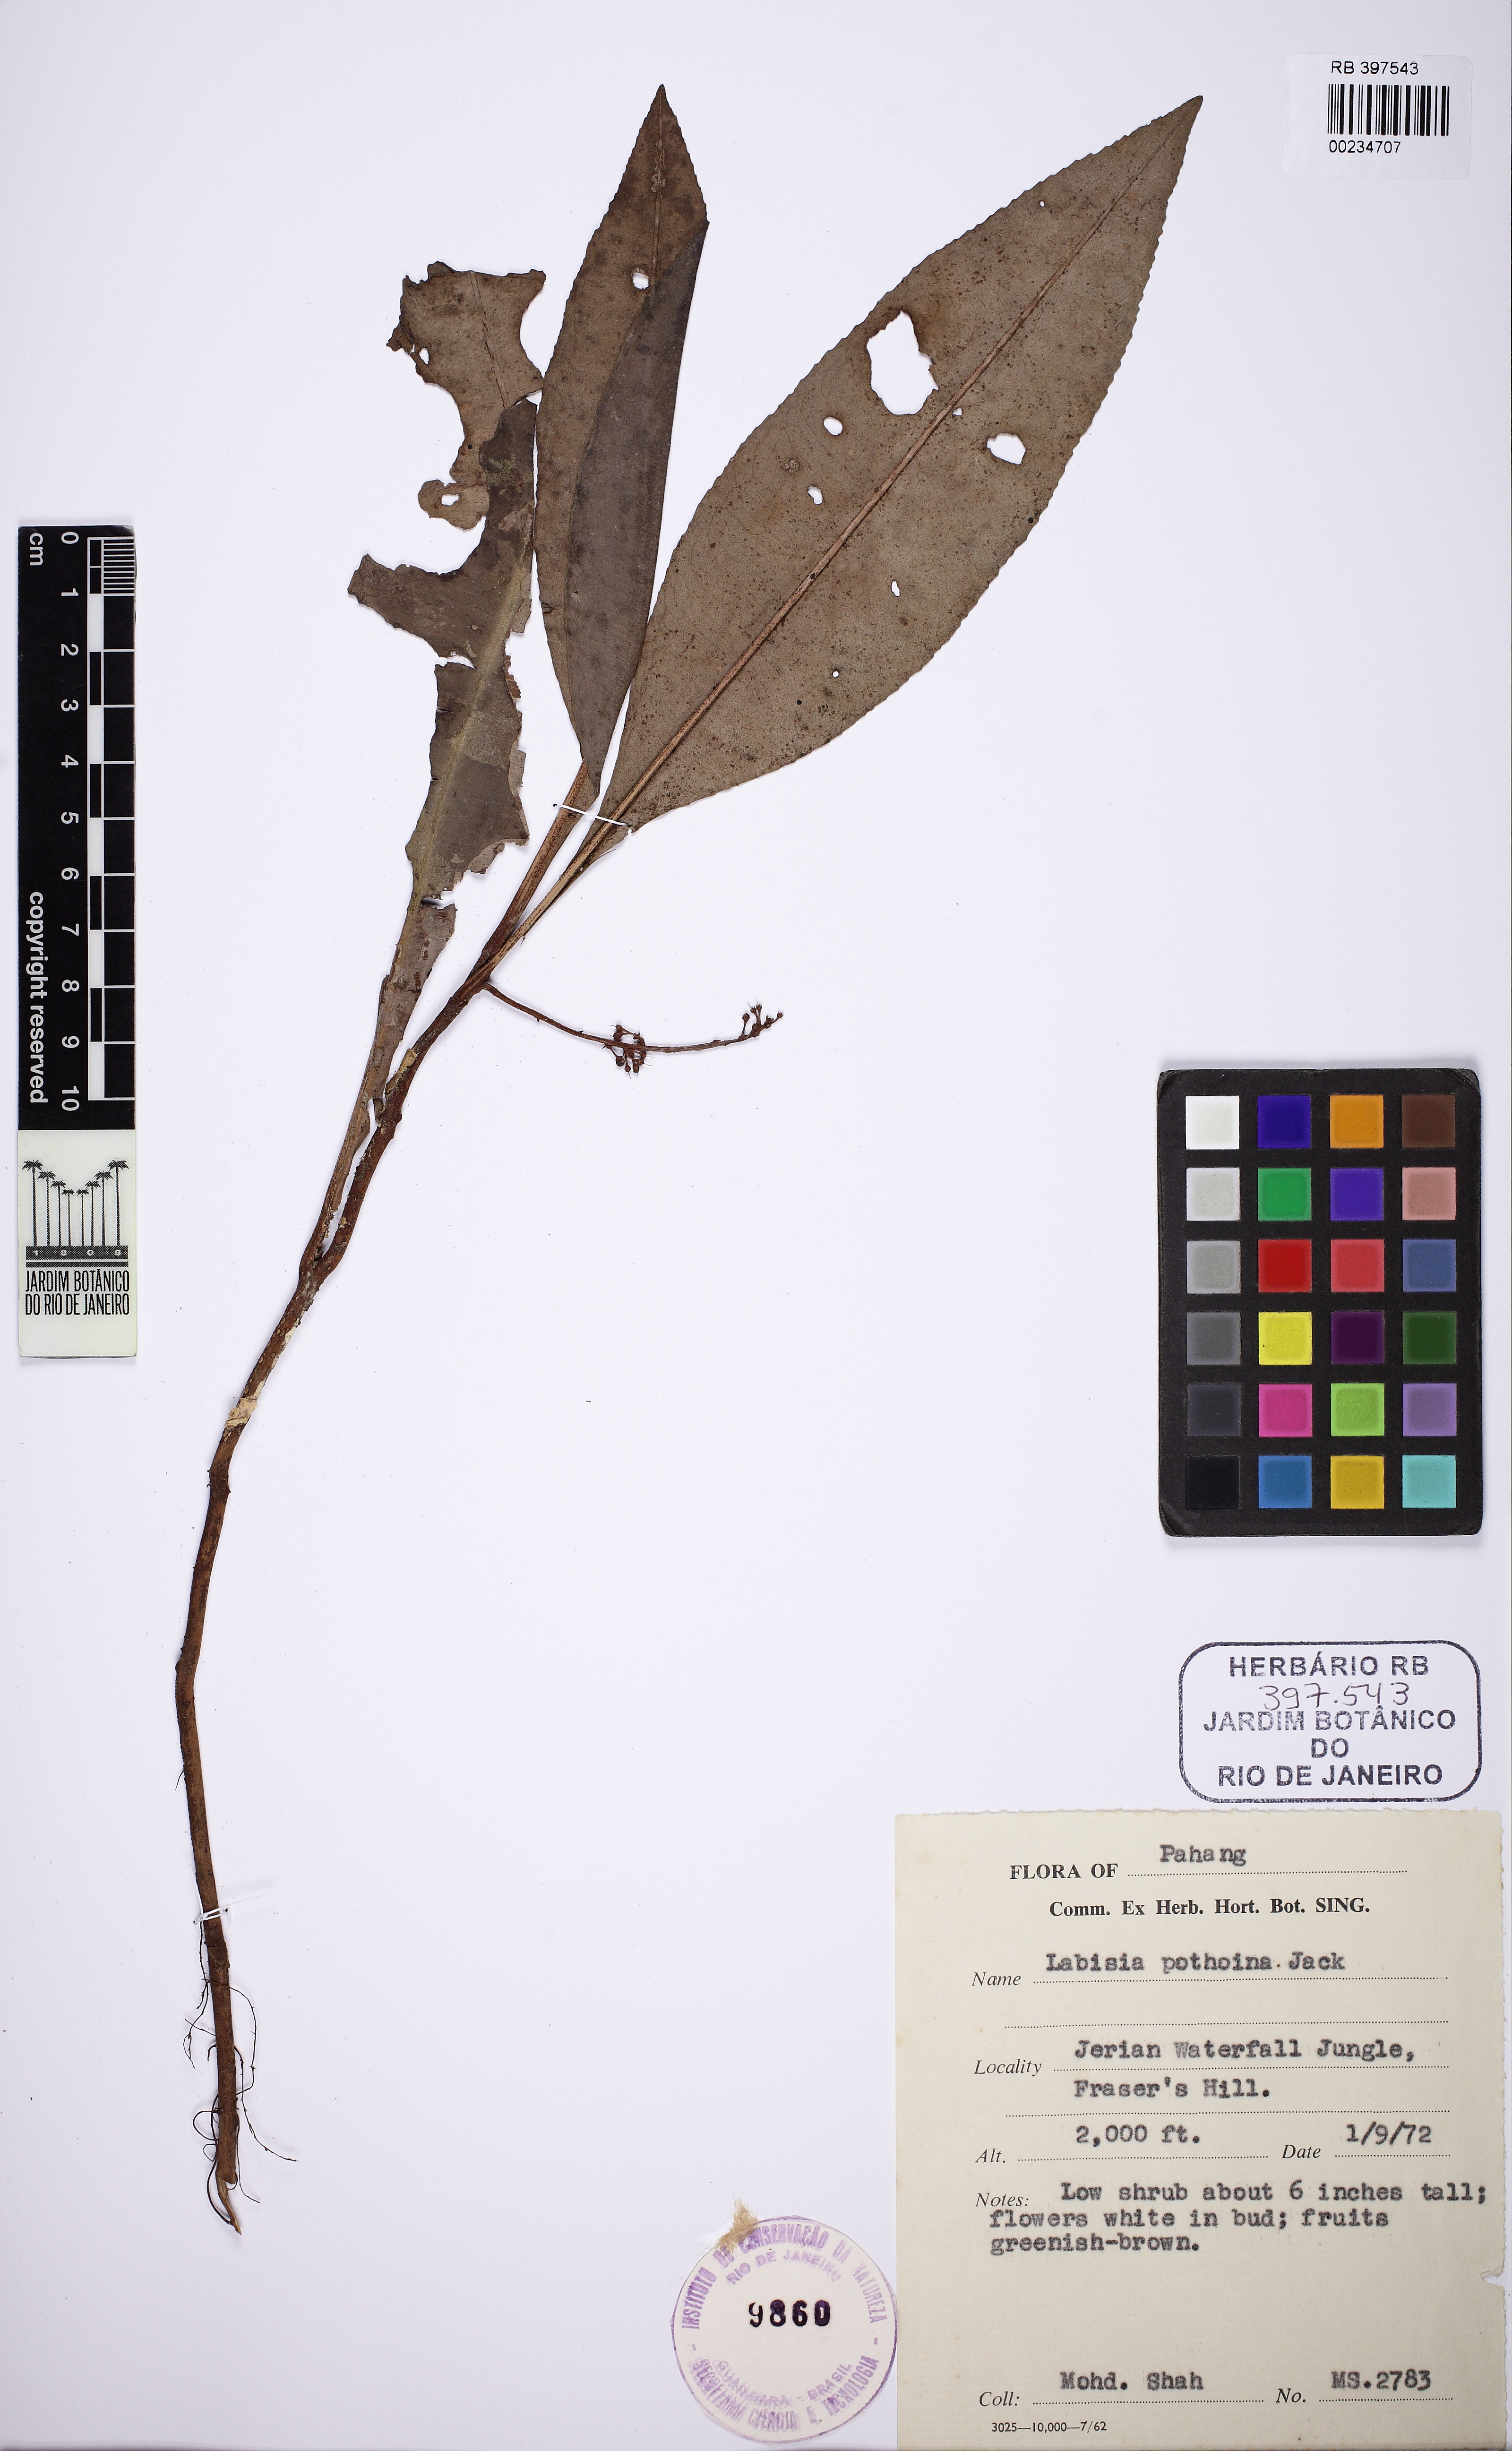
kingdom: Plantae
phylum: Tracheophyta
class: Magnoliopsida
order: Ericales
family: Primulaceae
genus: Labisia
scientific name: Labisia pumila
